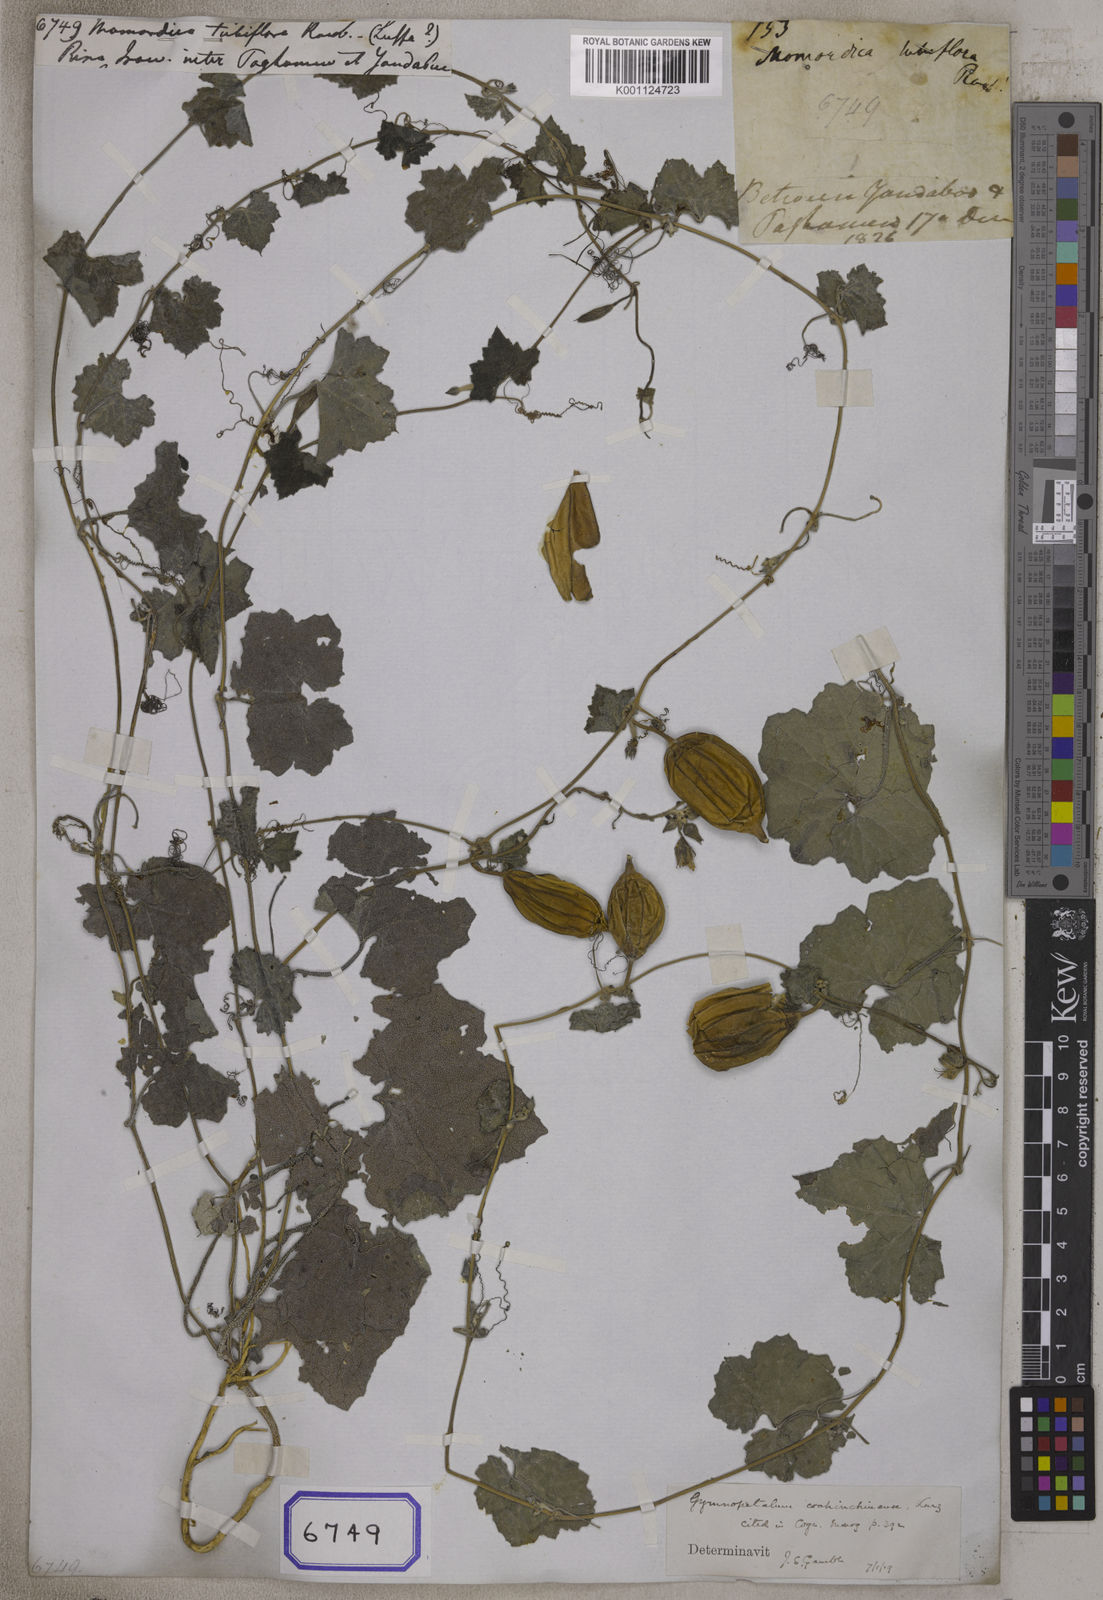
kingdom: Plantae
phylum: Tracheophyta
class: Magnoliopsida
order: Cucurbitales
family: Cucurbitaceae
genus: Luffa
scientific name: Luffa acutangula
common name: Sinkwa towelsponge
